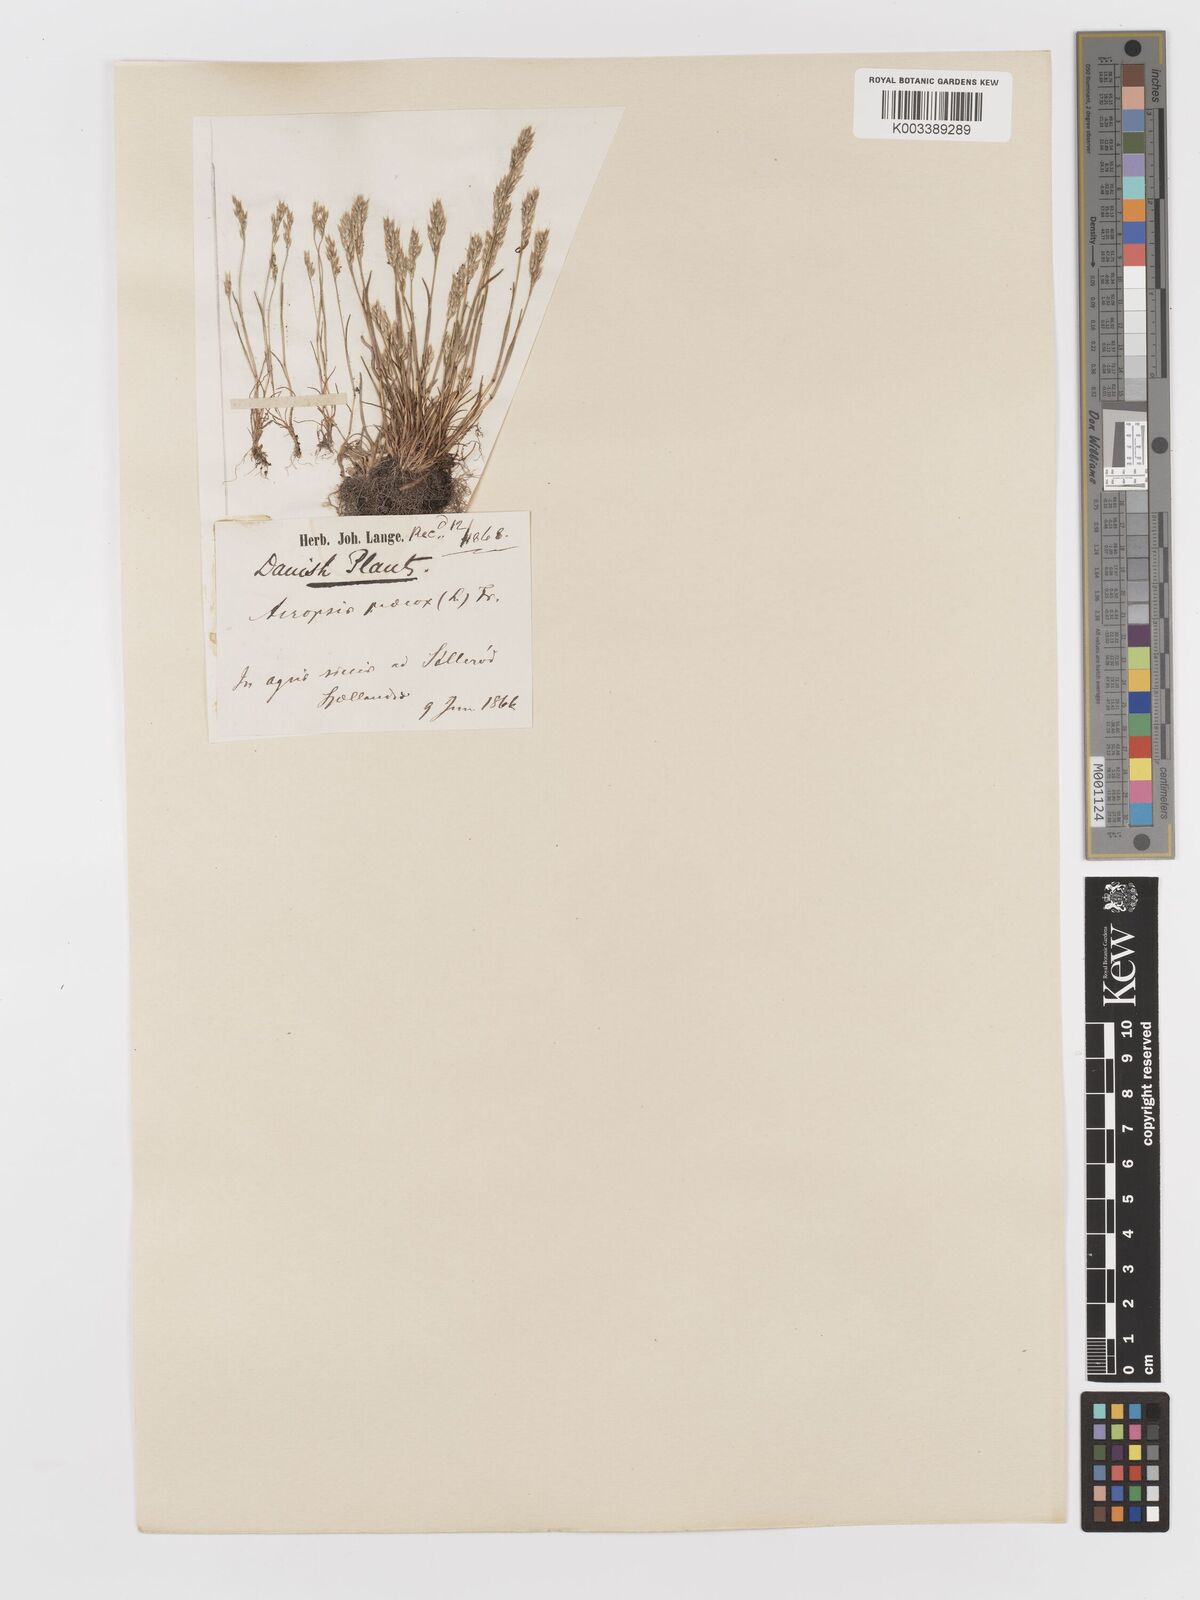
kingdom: Plantae
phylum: Tracheophyta
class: Liliopsida
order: Poales
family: Poaceae
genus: Aira
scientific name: Aira praecox
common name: Early hair-grass
